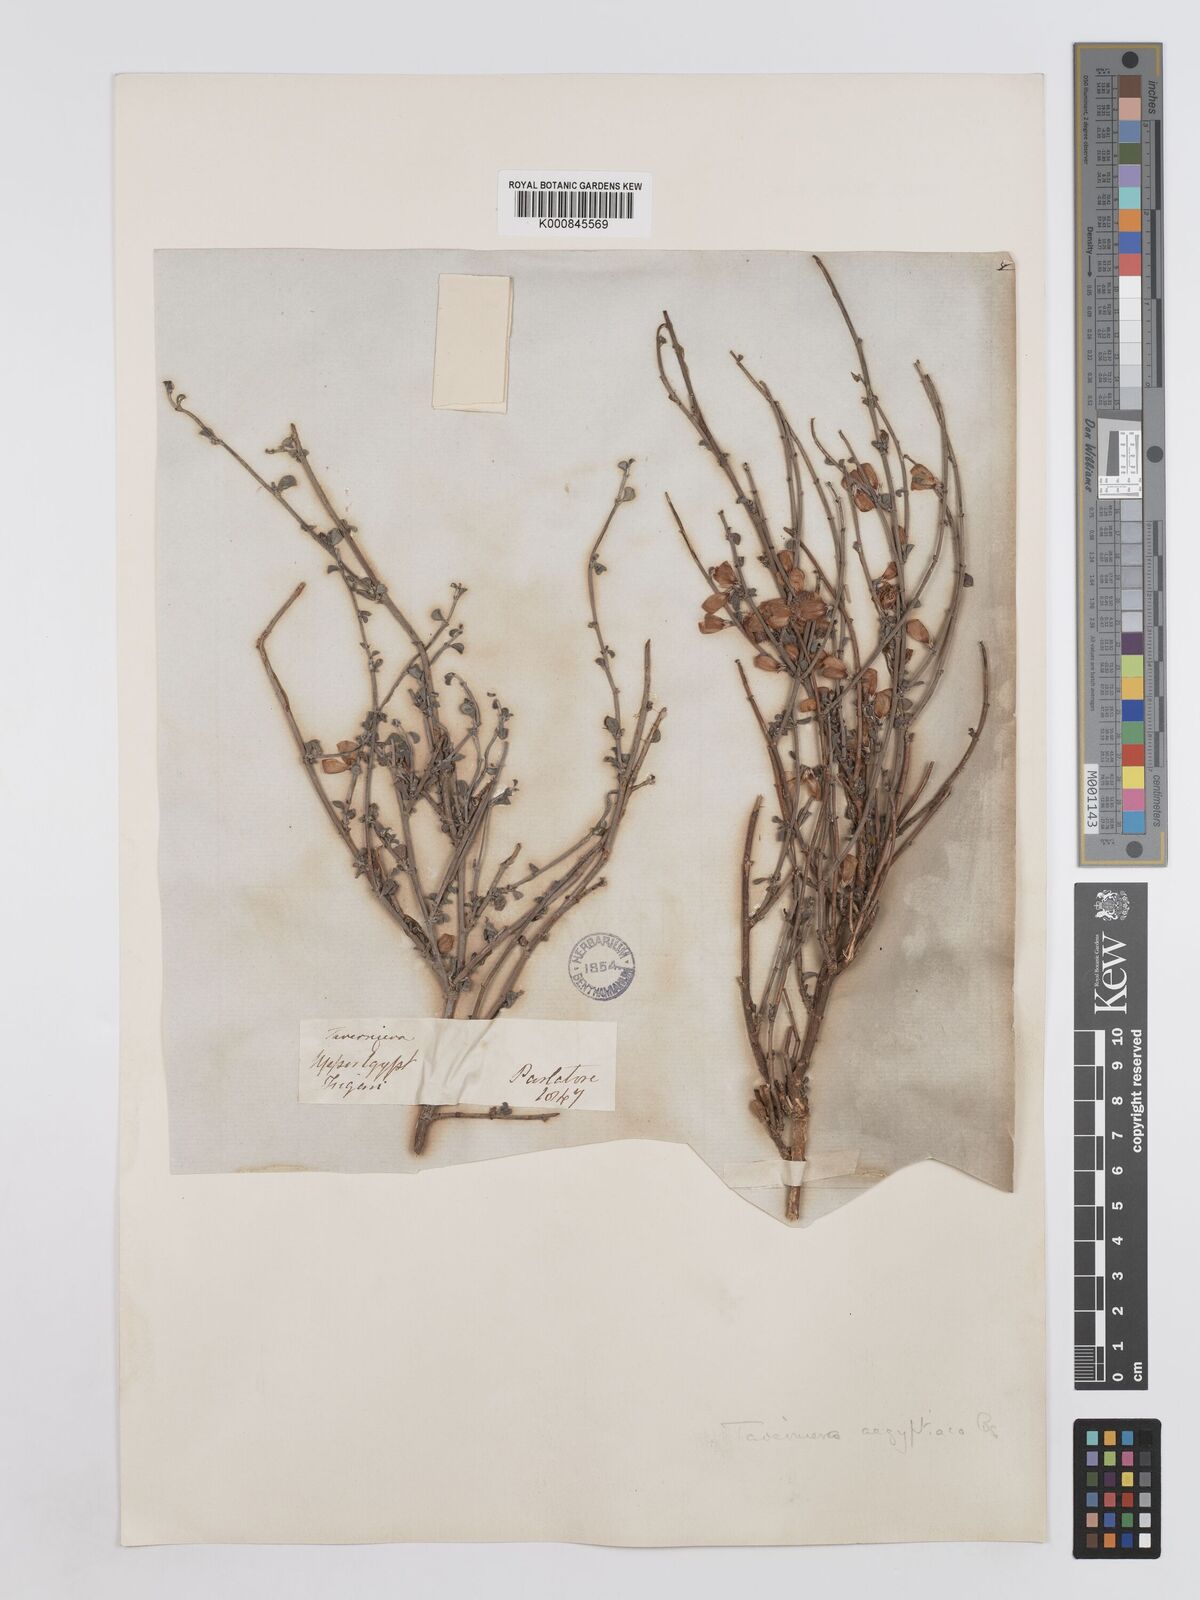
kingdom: Plantae
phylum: Tracheophyta
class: Magnoliopsida
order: Fabales
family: Fabaceae
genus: Taverniera
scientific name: Taverniera aegyptiaca
